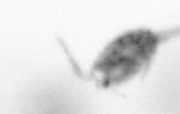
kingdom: Animalia
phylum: Arthropoda
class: Copepoda
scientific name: Copepoda
